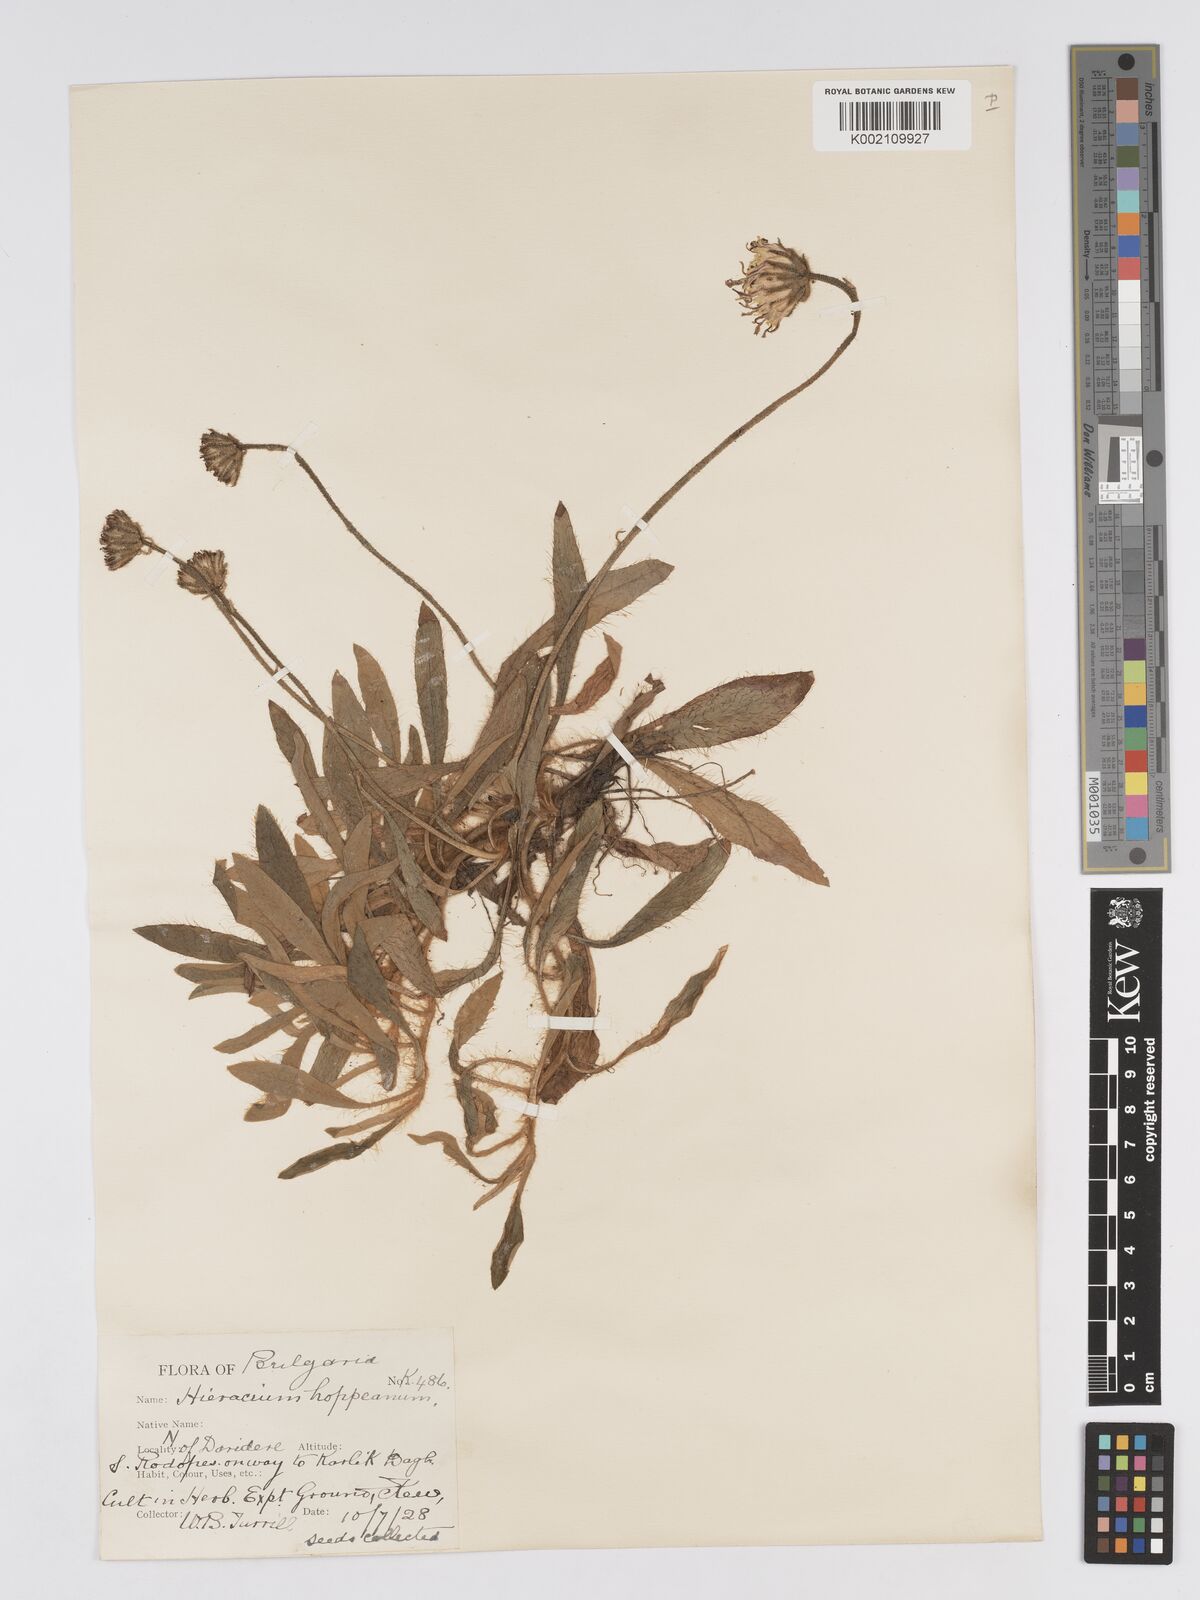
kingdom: Plantae
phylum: Tracheophyta
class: Magnoliopsida
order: Asterales
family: Asteraceae
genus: Pilosella
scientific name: Pilosella hoppeana
